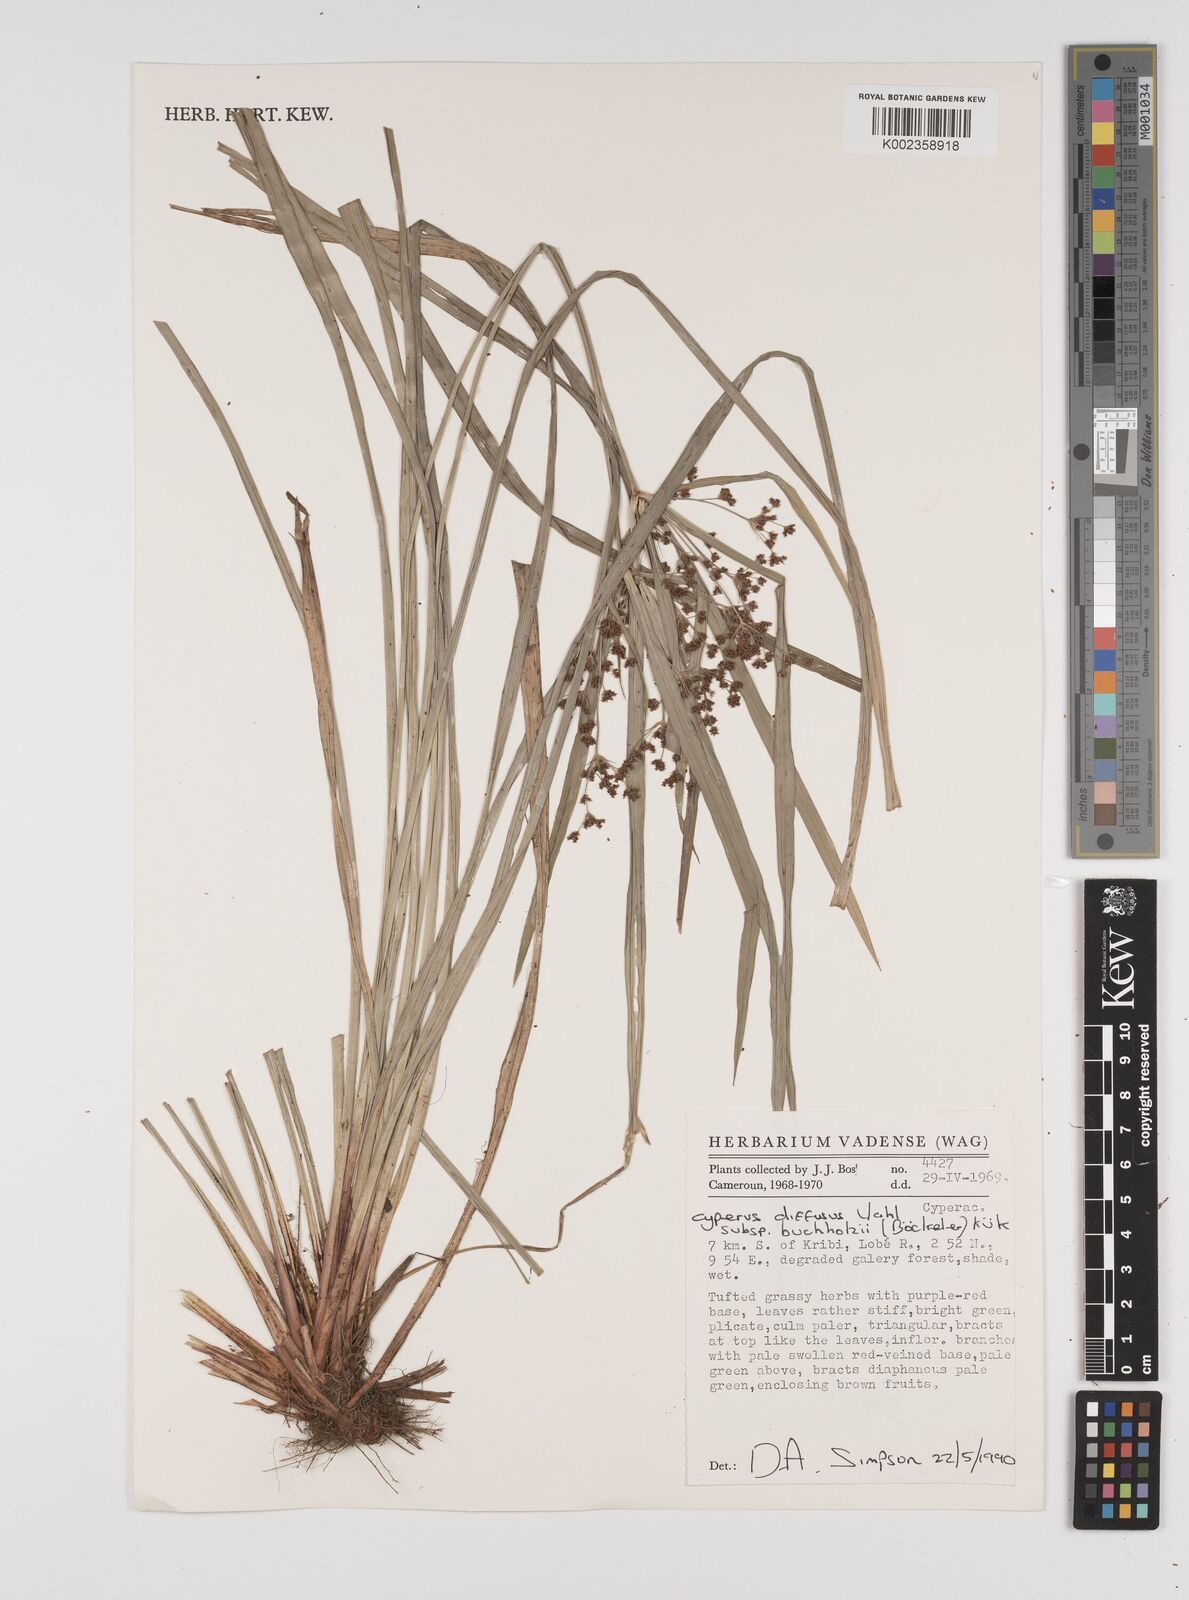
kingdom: Plantae
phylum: Tracheophyta
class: Liliopsida
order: Poales
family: Cyperaceae
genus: Cyperus
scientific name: Cyperus buchholzii
